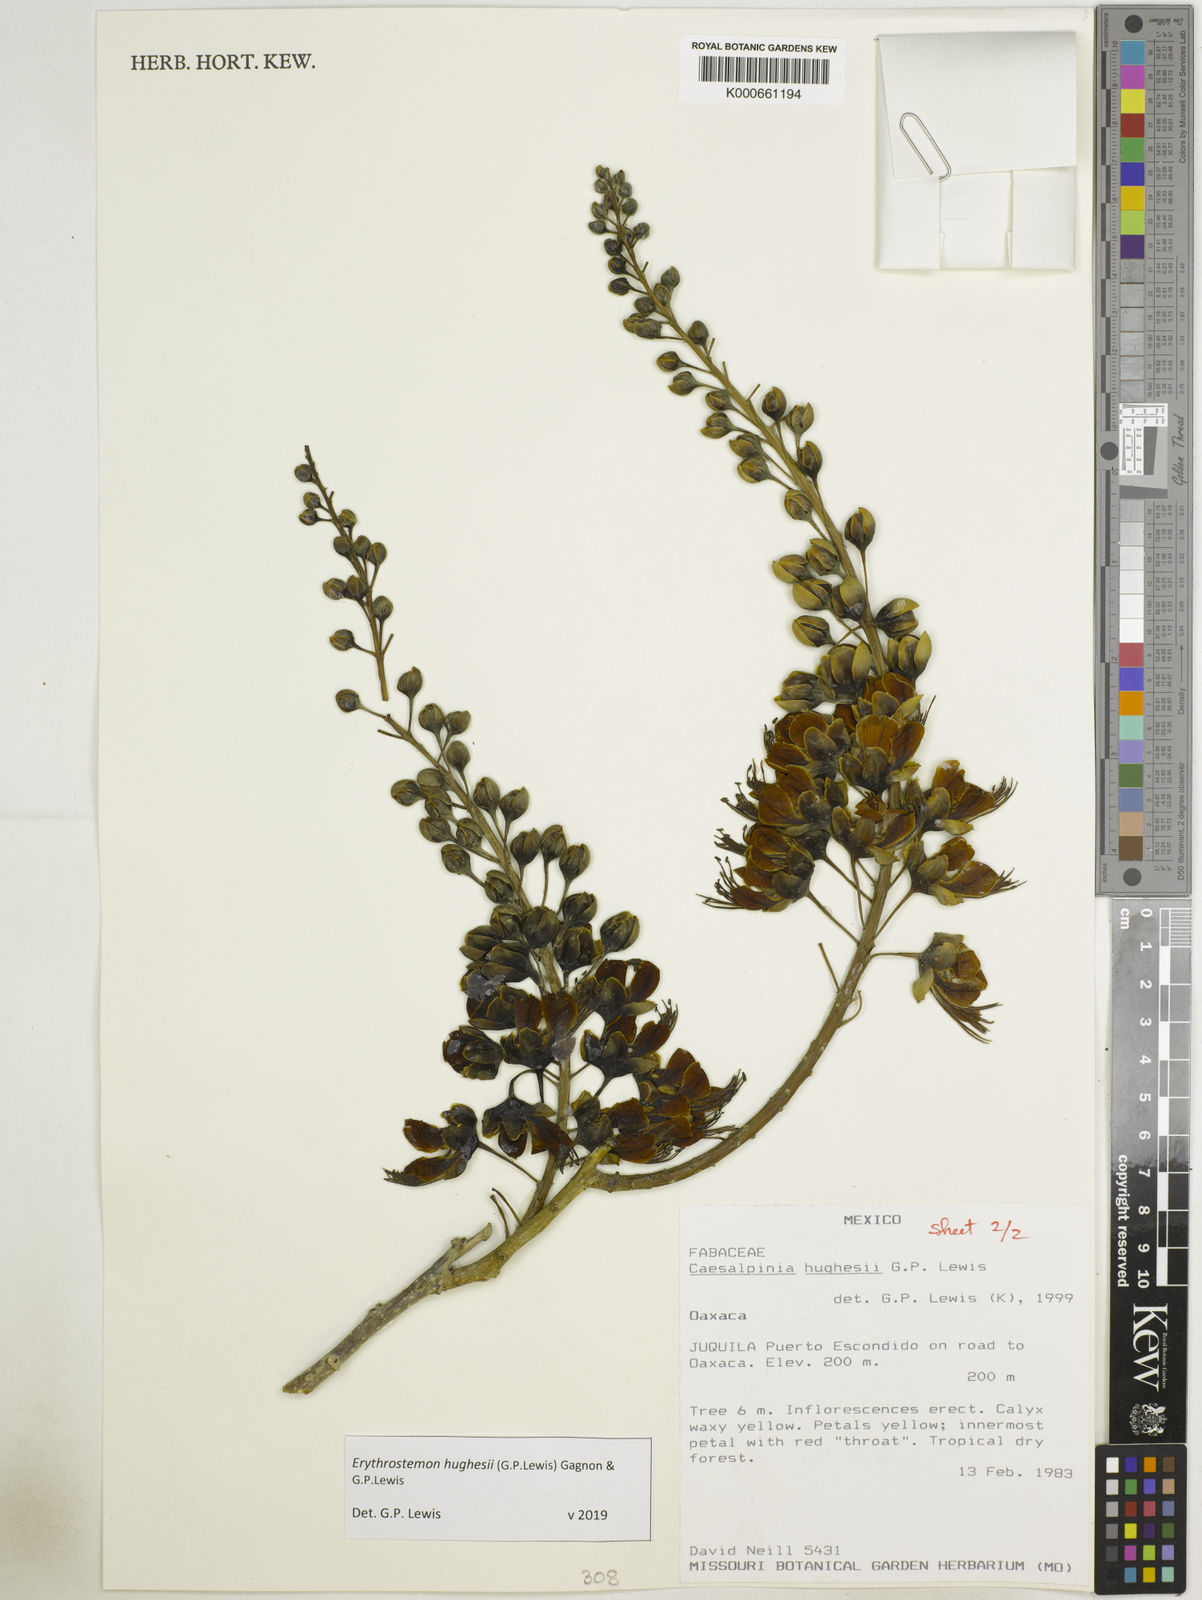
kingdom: Plantae
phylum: Tracheophyta
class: Magnoliopsida
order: Fabales
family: Fabaceae
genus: Erythrostemon
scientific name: Erythrostemon hughesii
